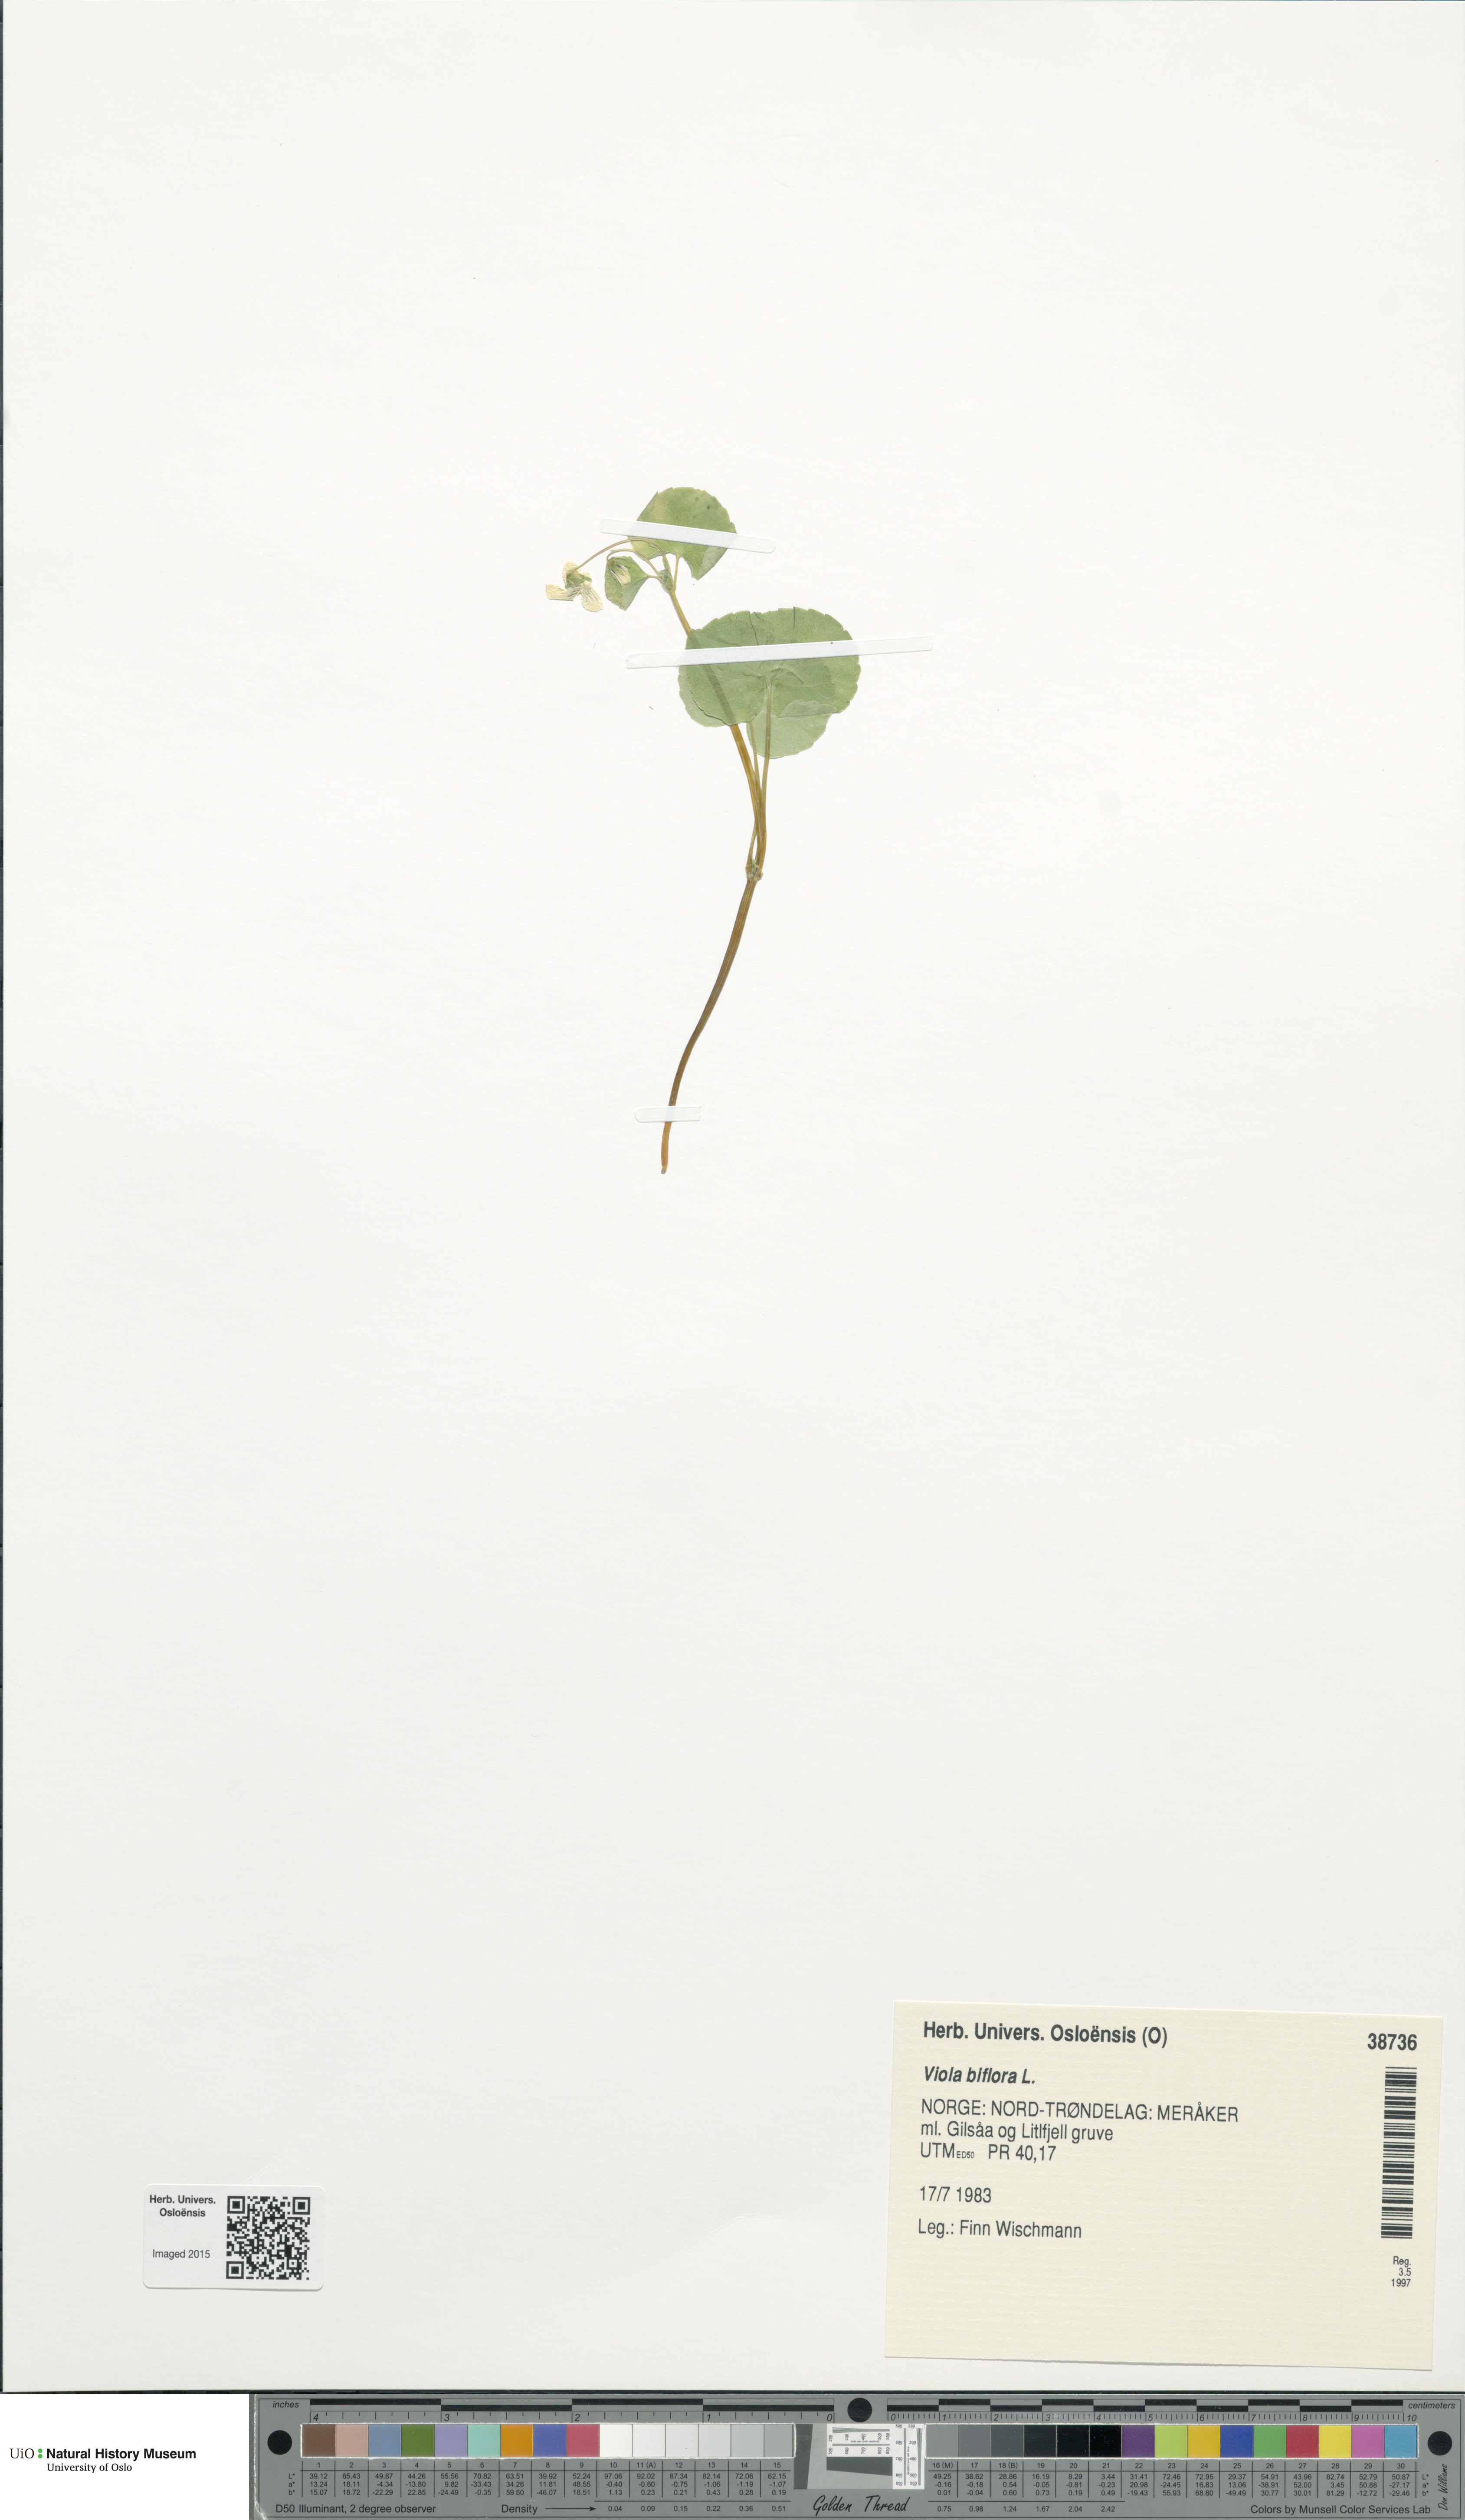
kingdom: Plantae
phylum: Tracheophyta
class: Magnoliopsida
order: Malpighiales
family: Violaceae
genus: Viola
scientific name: Viola biflora
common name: Alpine yellow violet
